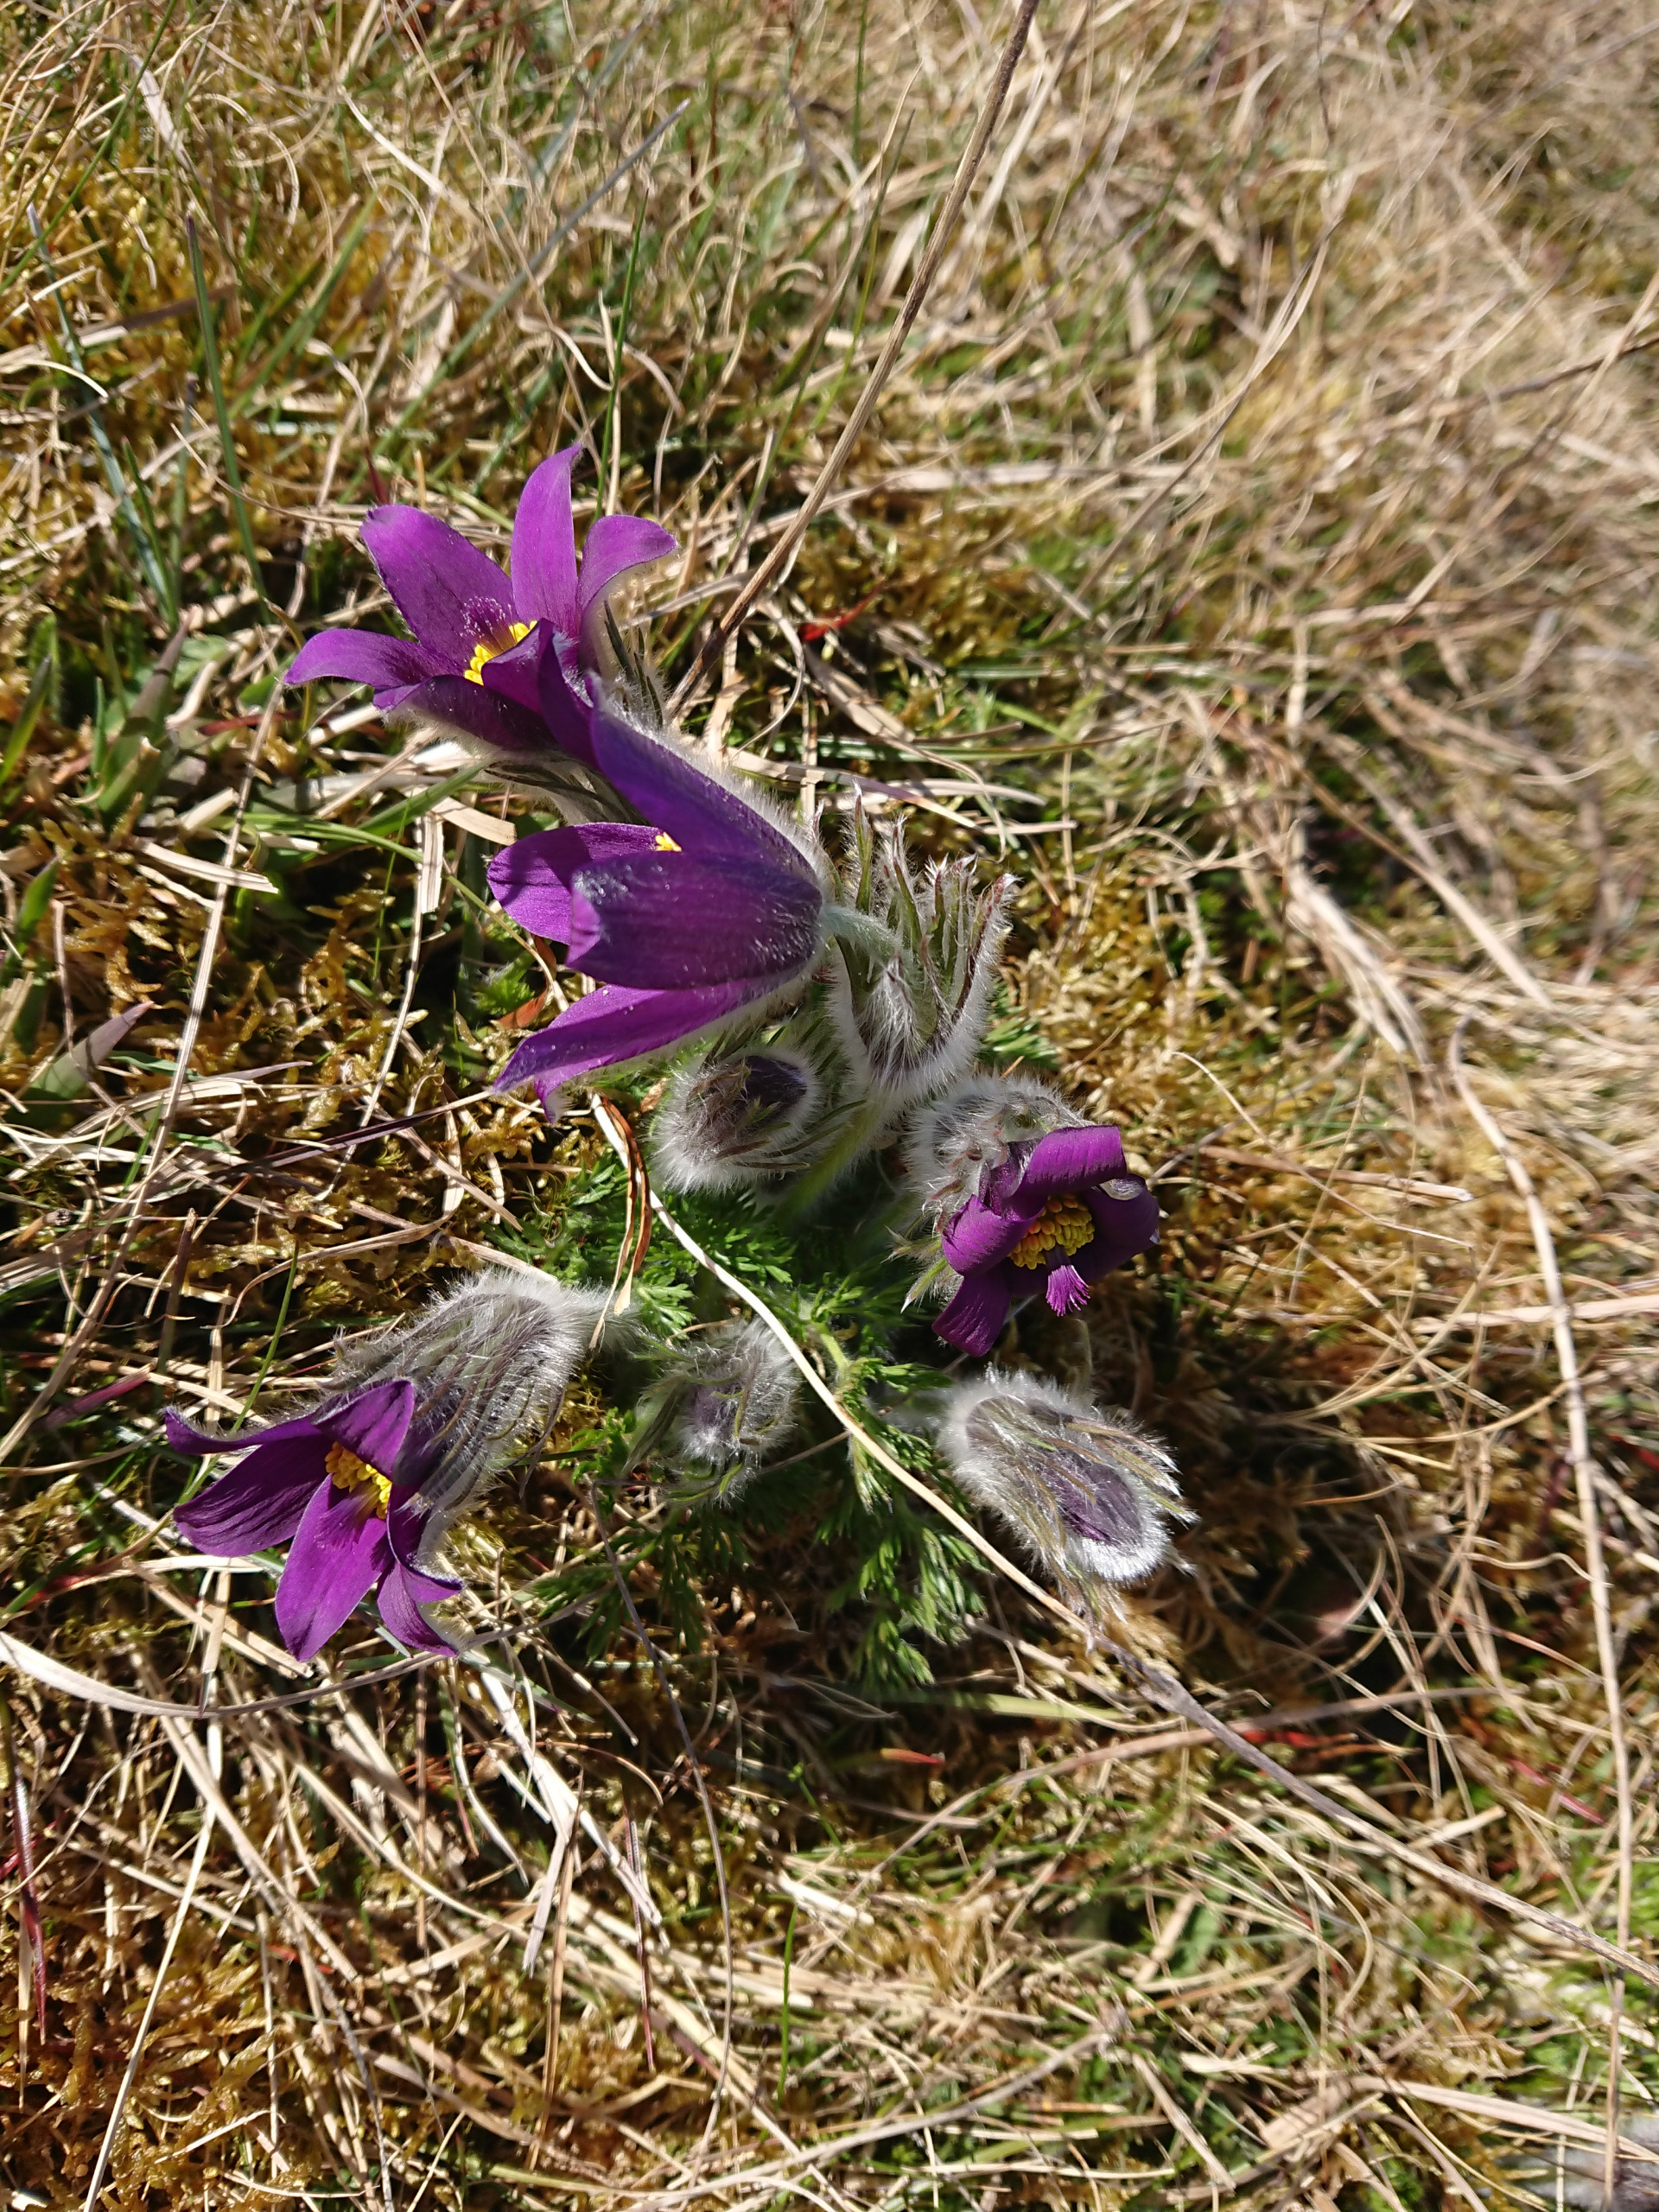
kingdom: Plantae
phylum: Tracheophyta
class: Magnoliopsida
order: Ranunculales
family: Ranunculaceae
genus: Pulsatilla
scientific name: Pulsatilla vulgaris
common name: Opret kobjælde
